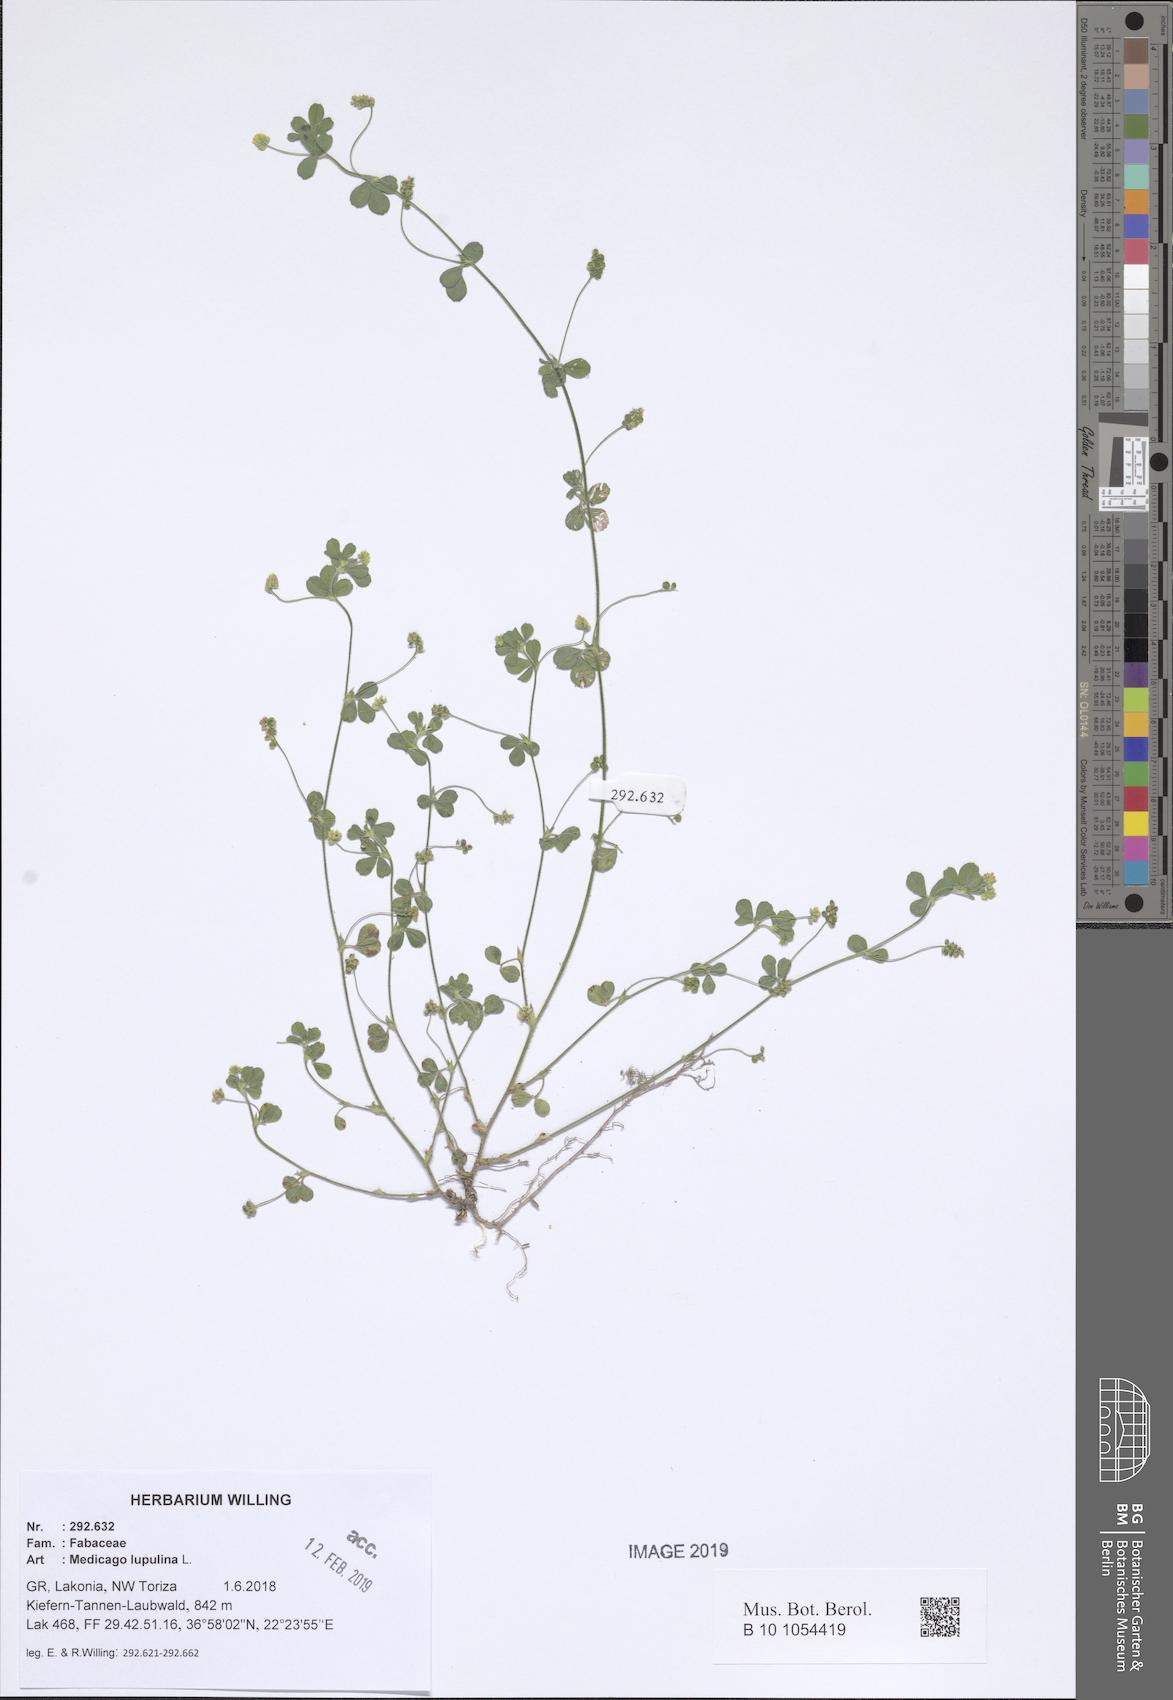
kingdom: Plantae
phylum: Tracheophyta
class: Magnoliopsida
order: Fabales
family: Fabaceae
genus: Medicago
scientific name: Medicago lupulina
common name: Black medick
